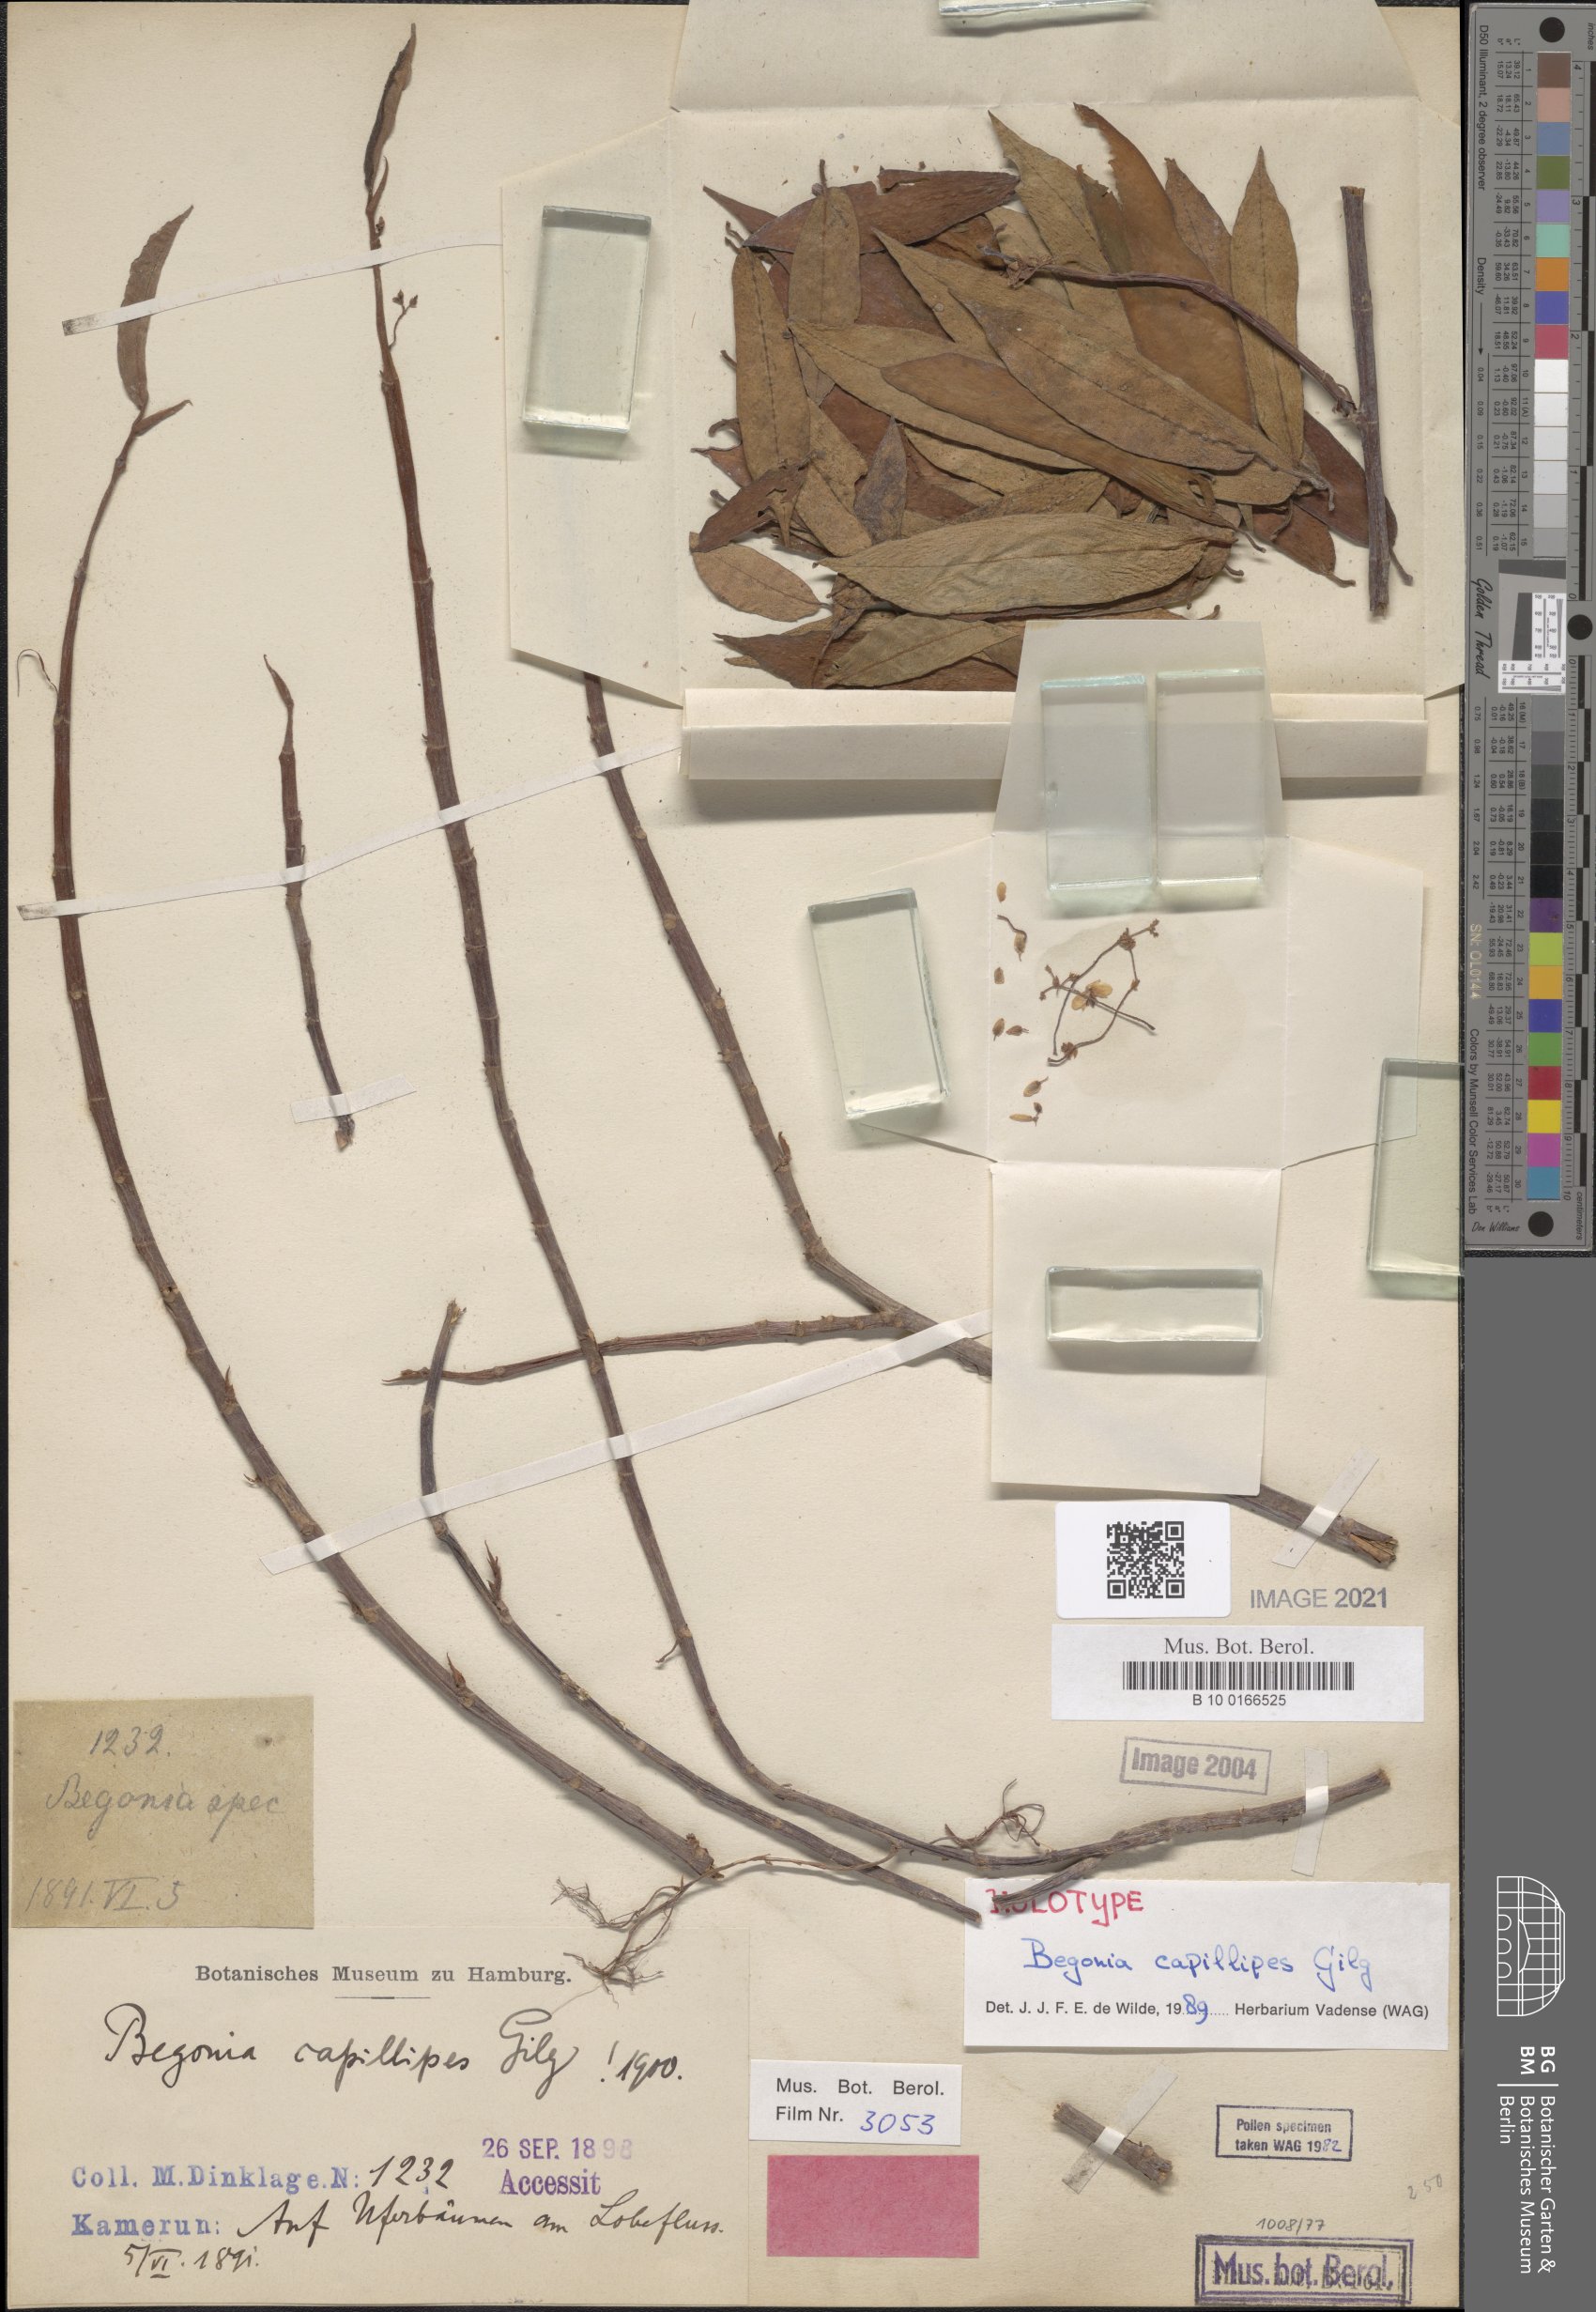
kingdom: Plantae
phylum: Tracheophyta
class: Magnoliopsida
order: Cucurbitales
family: Begoniaceae
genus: Begonia
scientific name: Begonia capillipes
